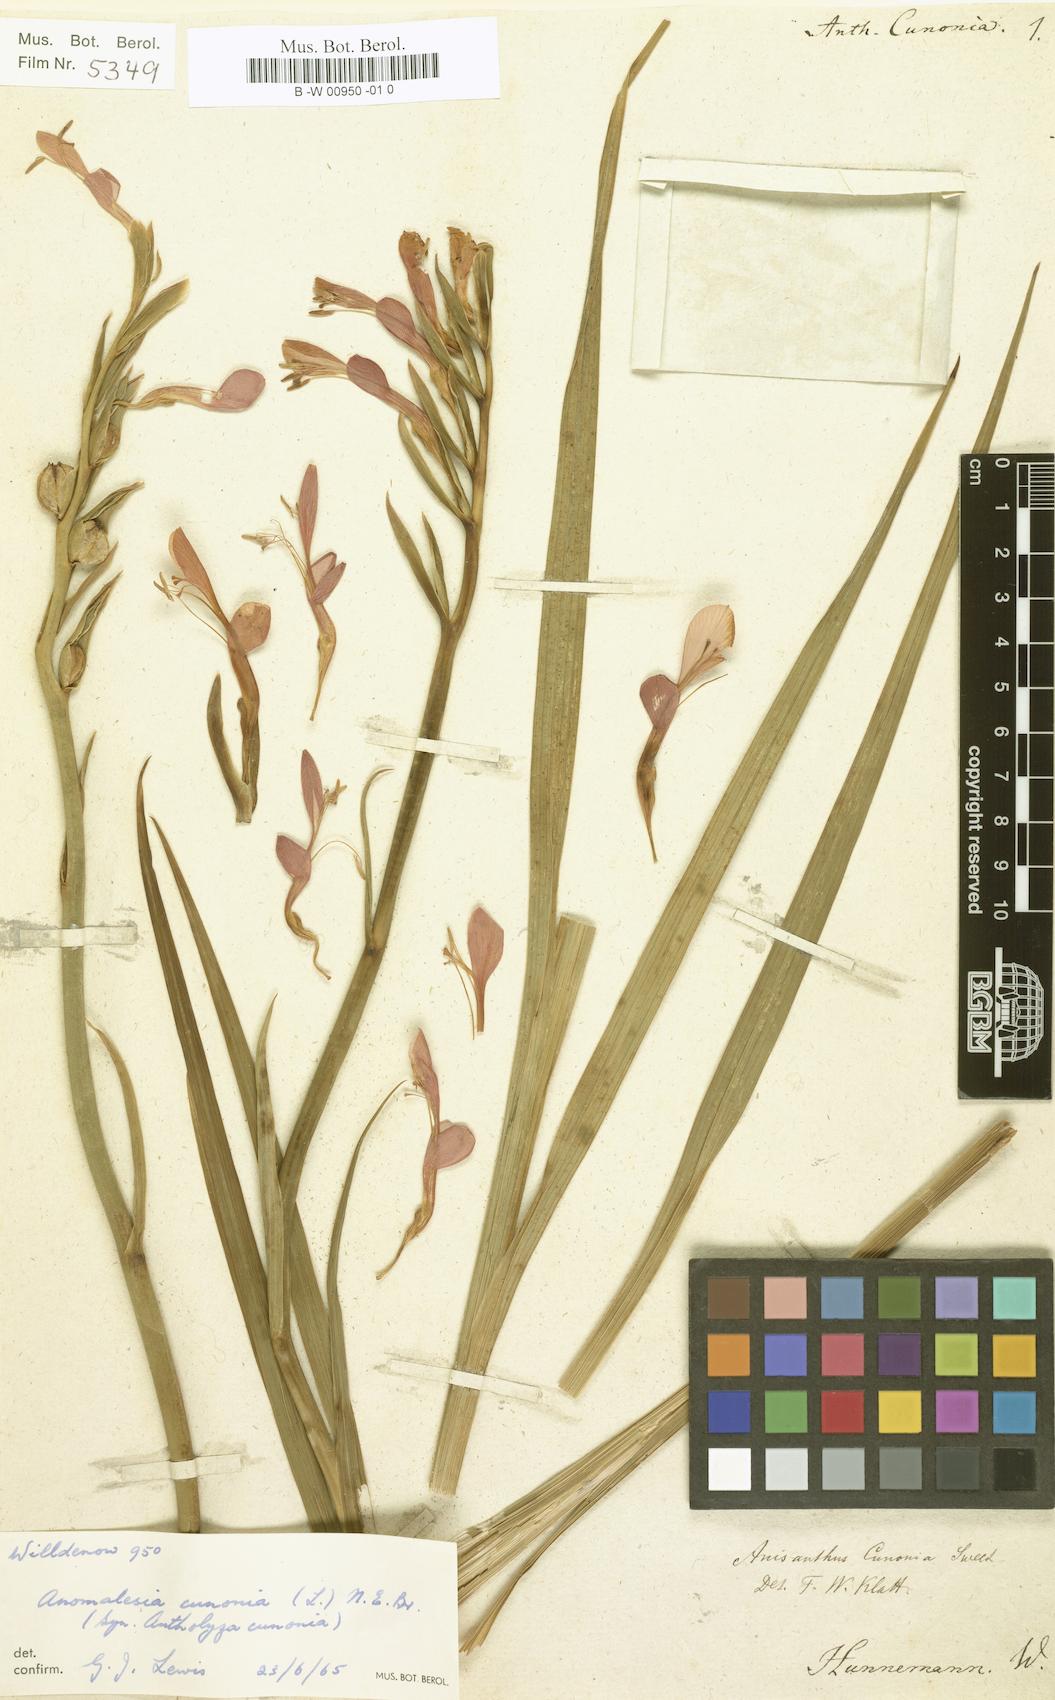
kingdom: Plantae
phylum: Tracheophyta
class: Liliopsida
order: Asparagales
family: Iridaceae
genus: Gladiolus
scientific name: Gladiolus cunonius
